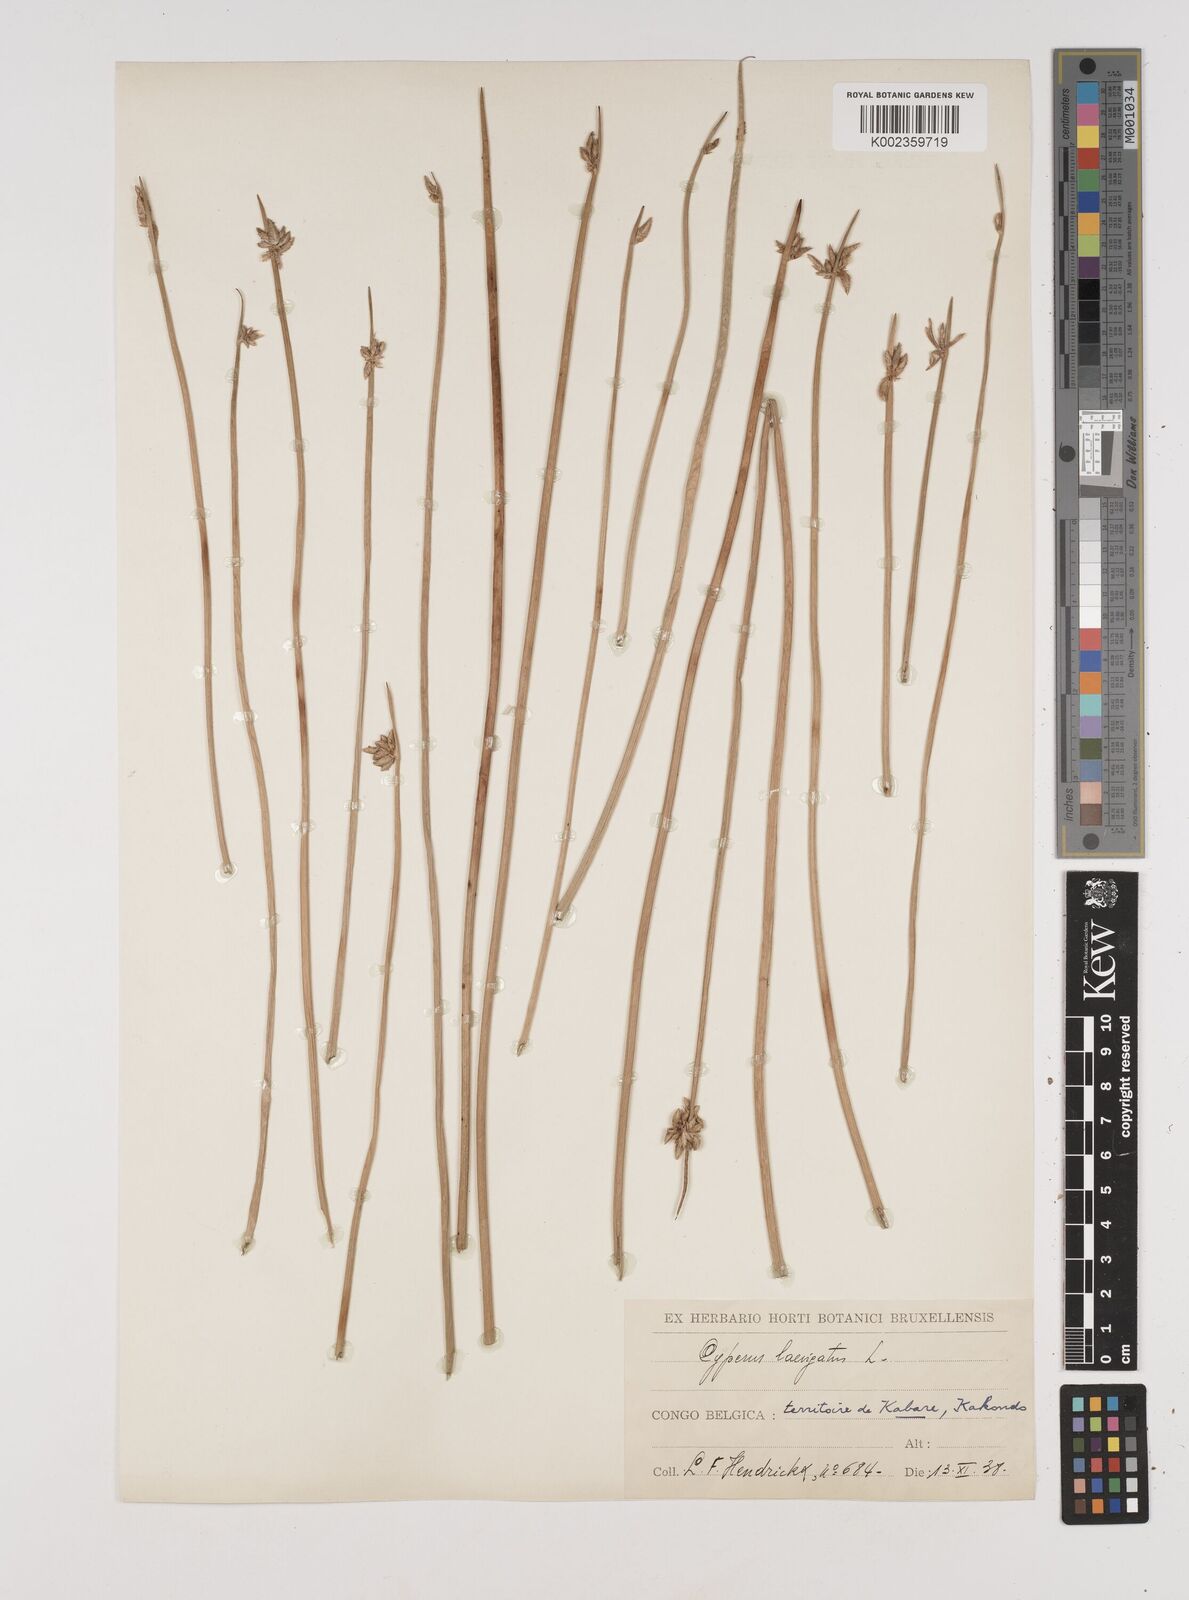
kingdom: Plantae
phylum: Tracheophyta
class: Liliopsida
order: Poales
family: Cyperaceae
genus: Cyperus
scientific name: Cyperus laevigatus
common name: Smooth flat sedge
